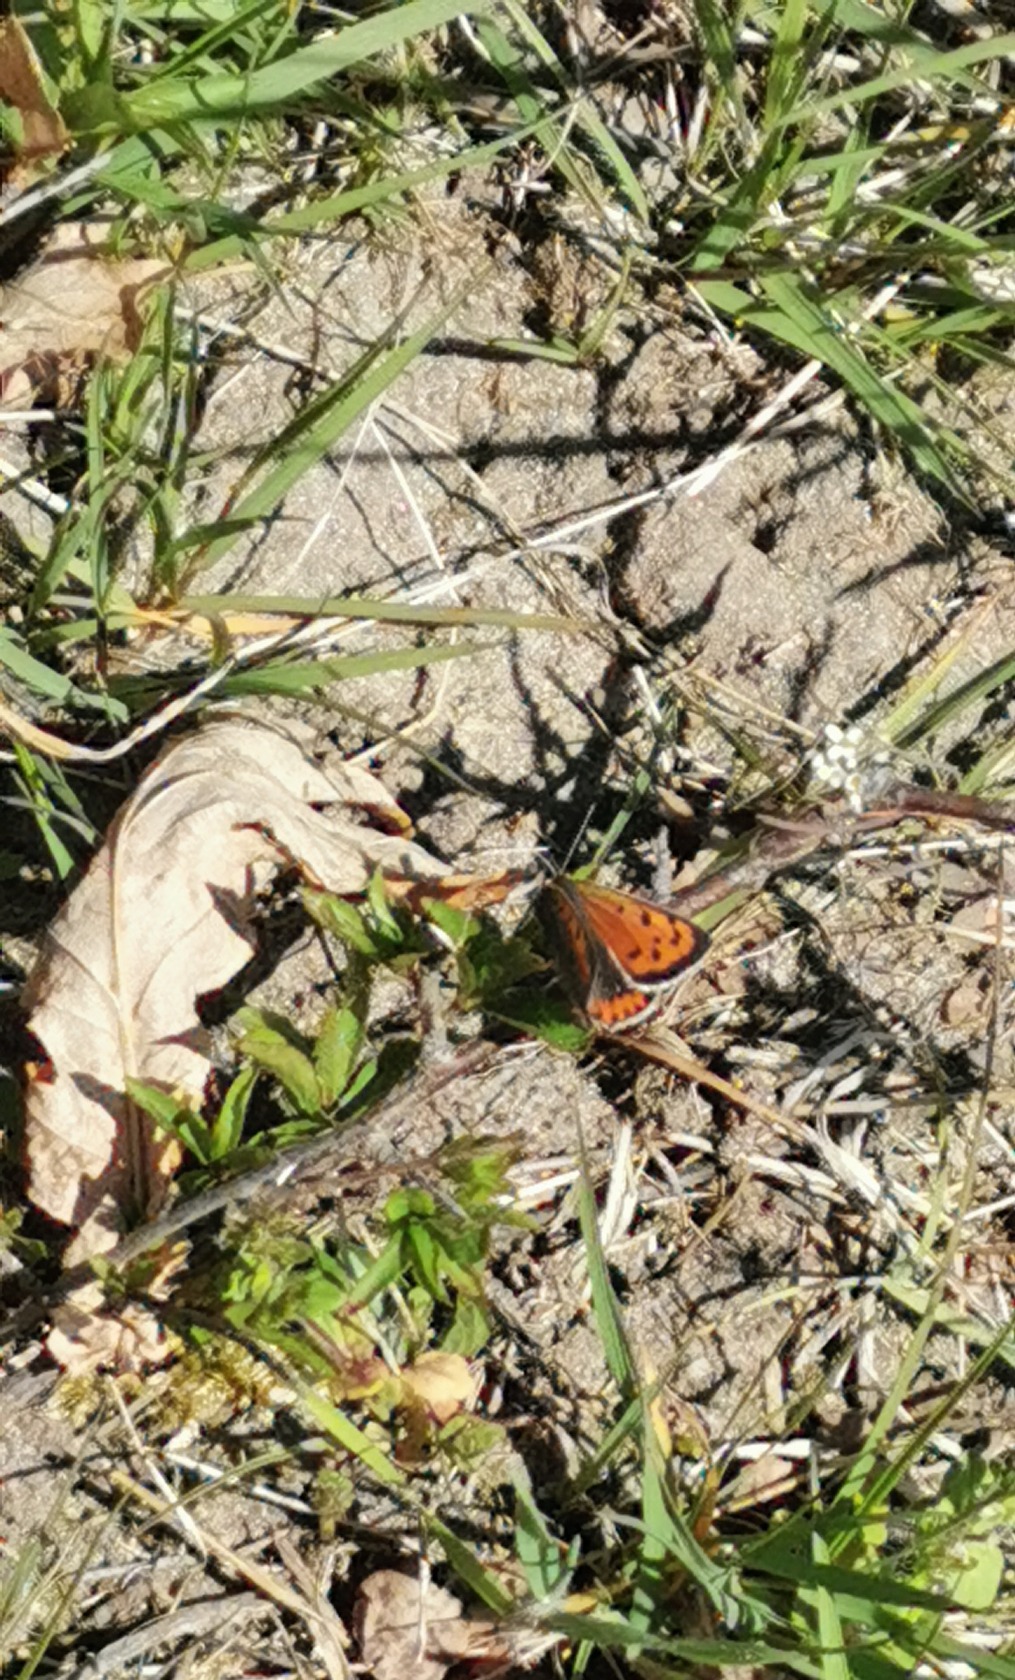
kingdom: Animalia
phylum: Arthropoda
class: Insecta
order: Lepidoptera
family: Lycaenidae
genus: Lycaena
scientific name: Lycaena phlaeas
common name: Lille ildfugl
